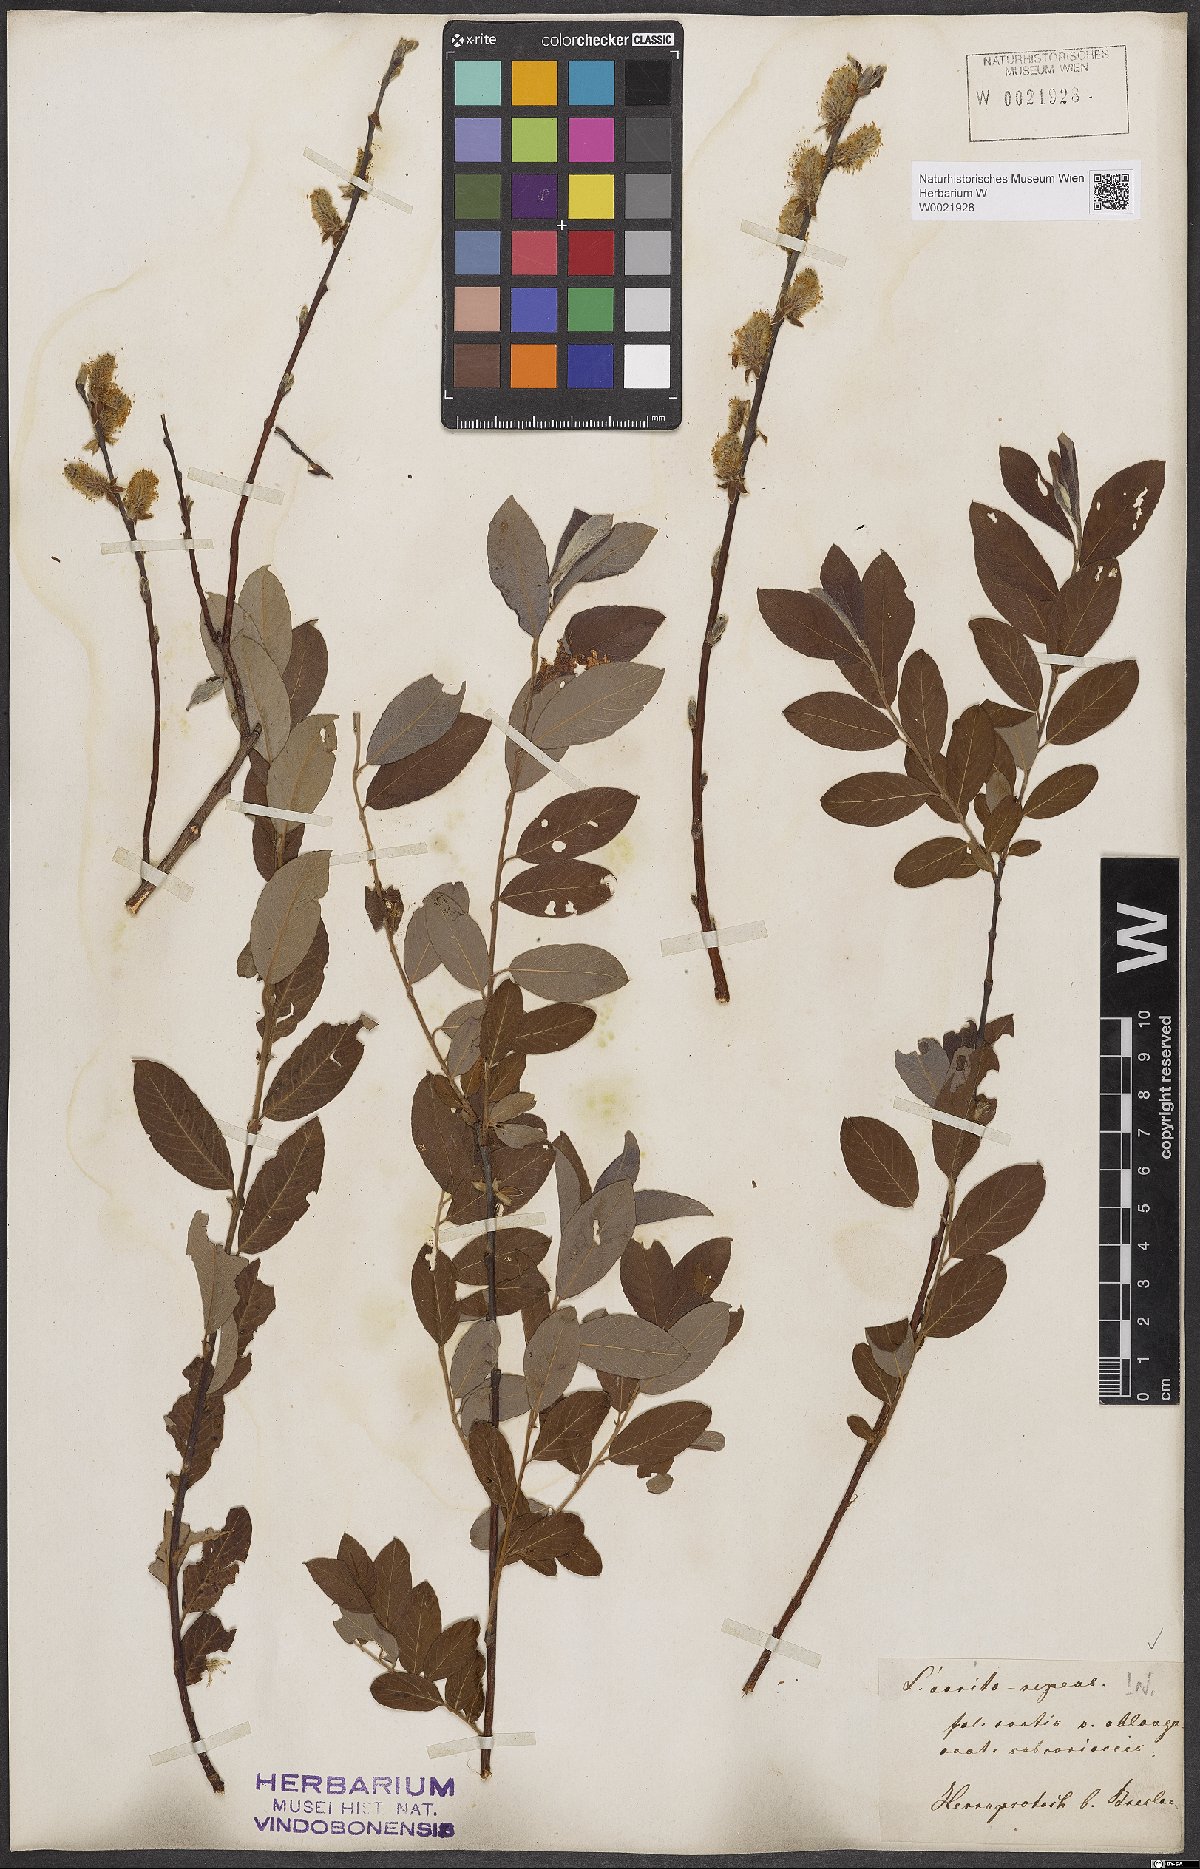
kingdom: Plantae
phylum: Tracheophyta
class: Magnoliopsida
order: Malpighiales
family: Salicaceae
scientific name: Salicaceae
